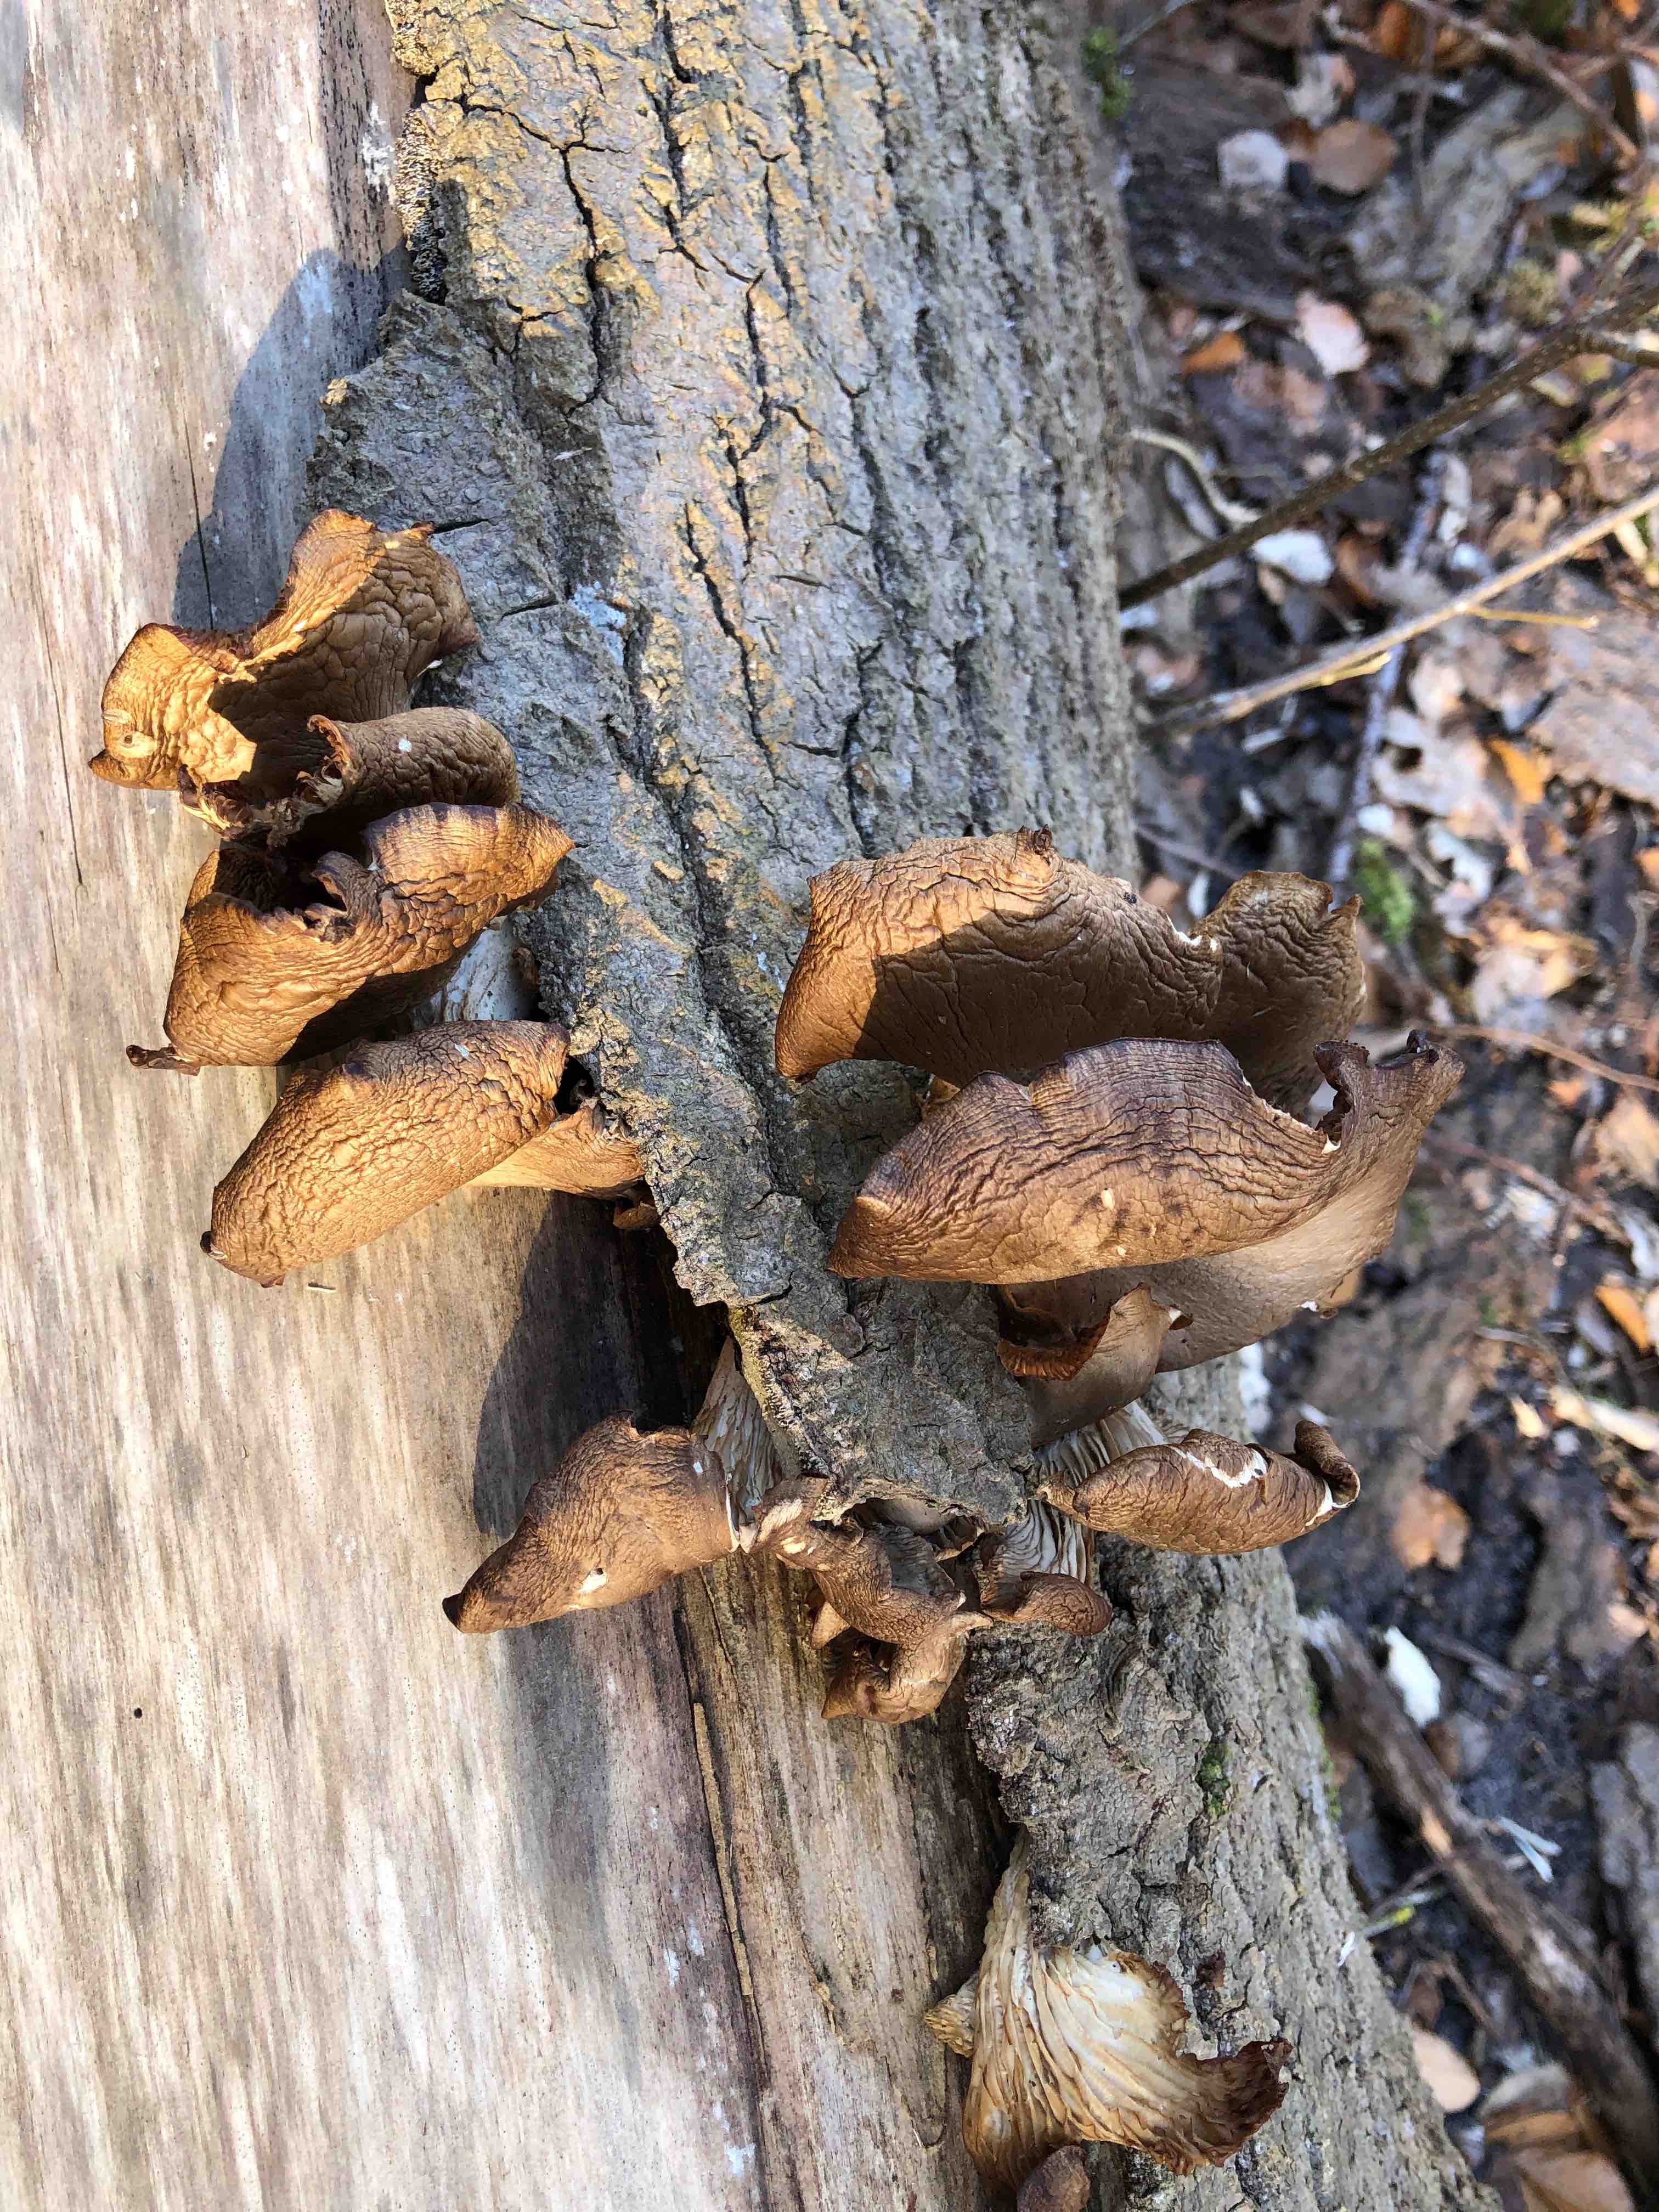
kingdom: Fungi
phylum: Basidiomycota
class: Agaricomycetes
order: Agaricales
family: Pleurotaceae
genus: Pleurotus
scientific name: Pleurotus ostreatus
